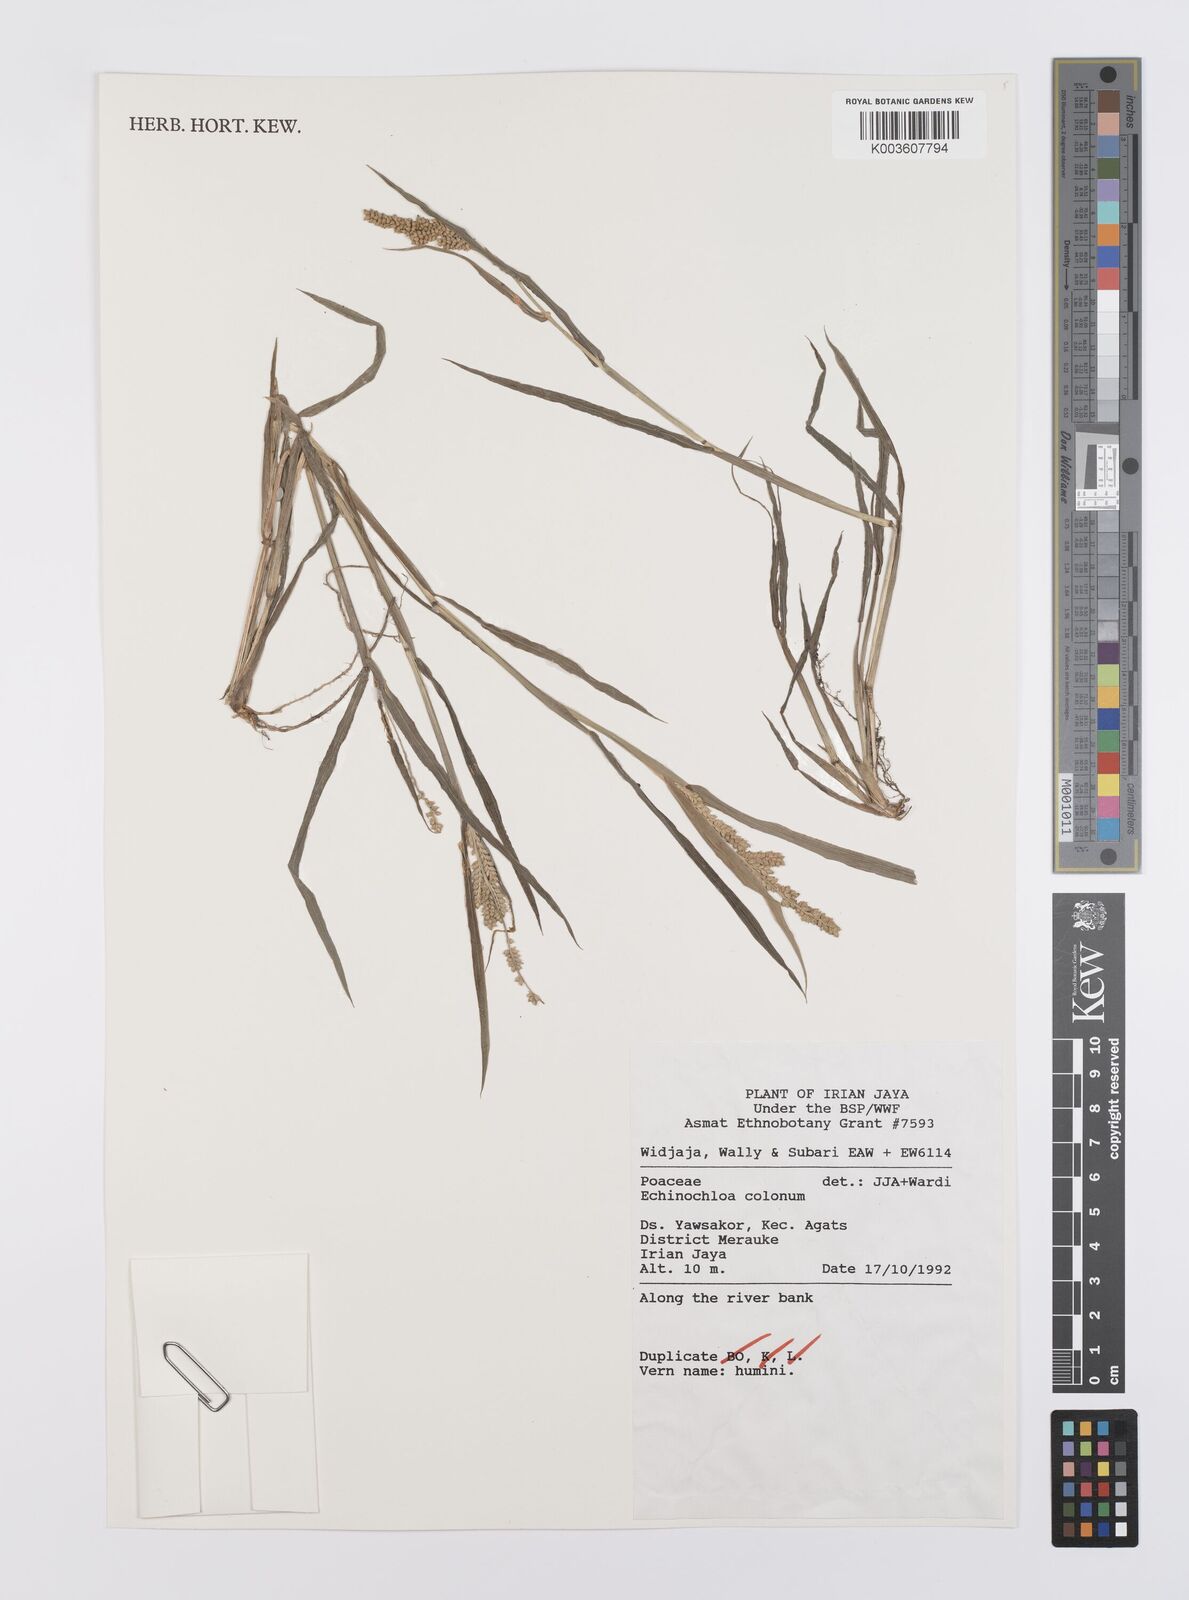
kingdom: Plantae
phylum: Tracheophyta
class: Liliopsida
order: Poales
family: Poaceae
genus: Echinochloa
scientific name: Echinochloa colonum
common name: Jungle rice
